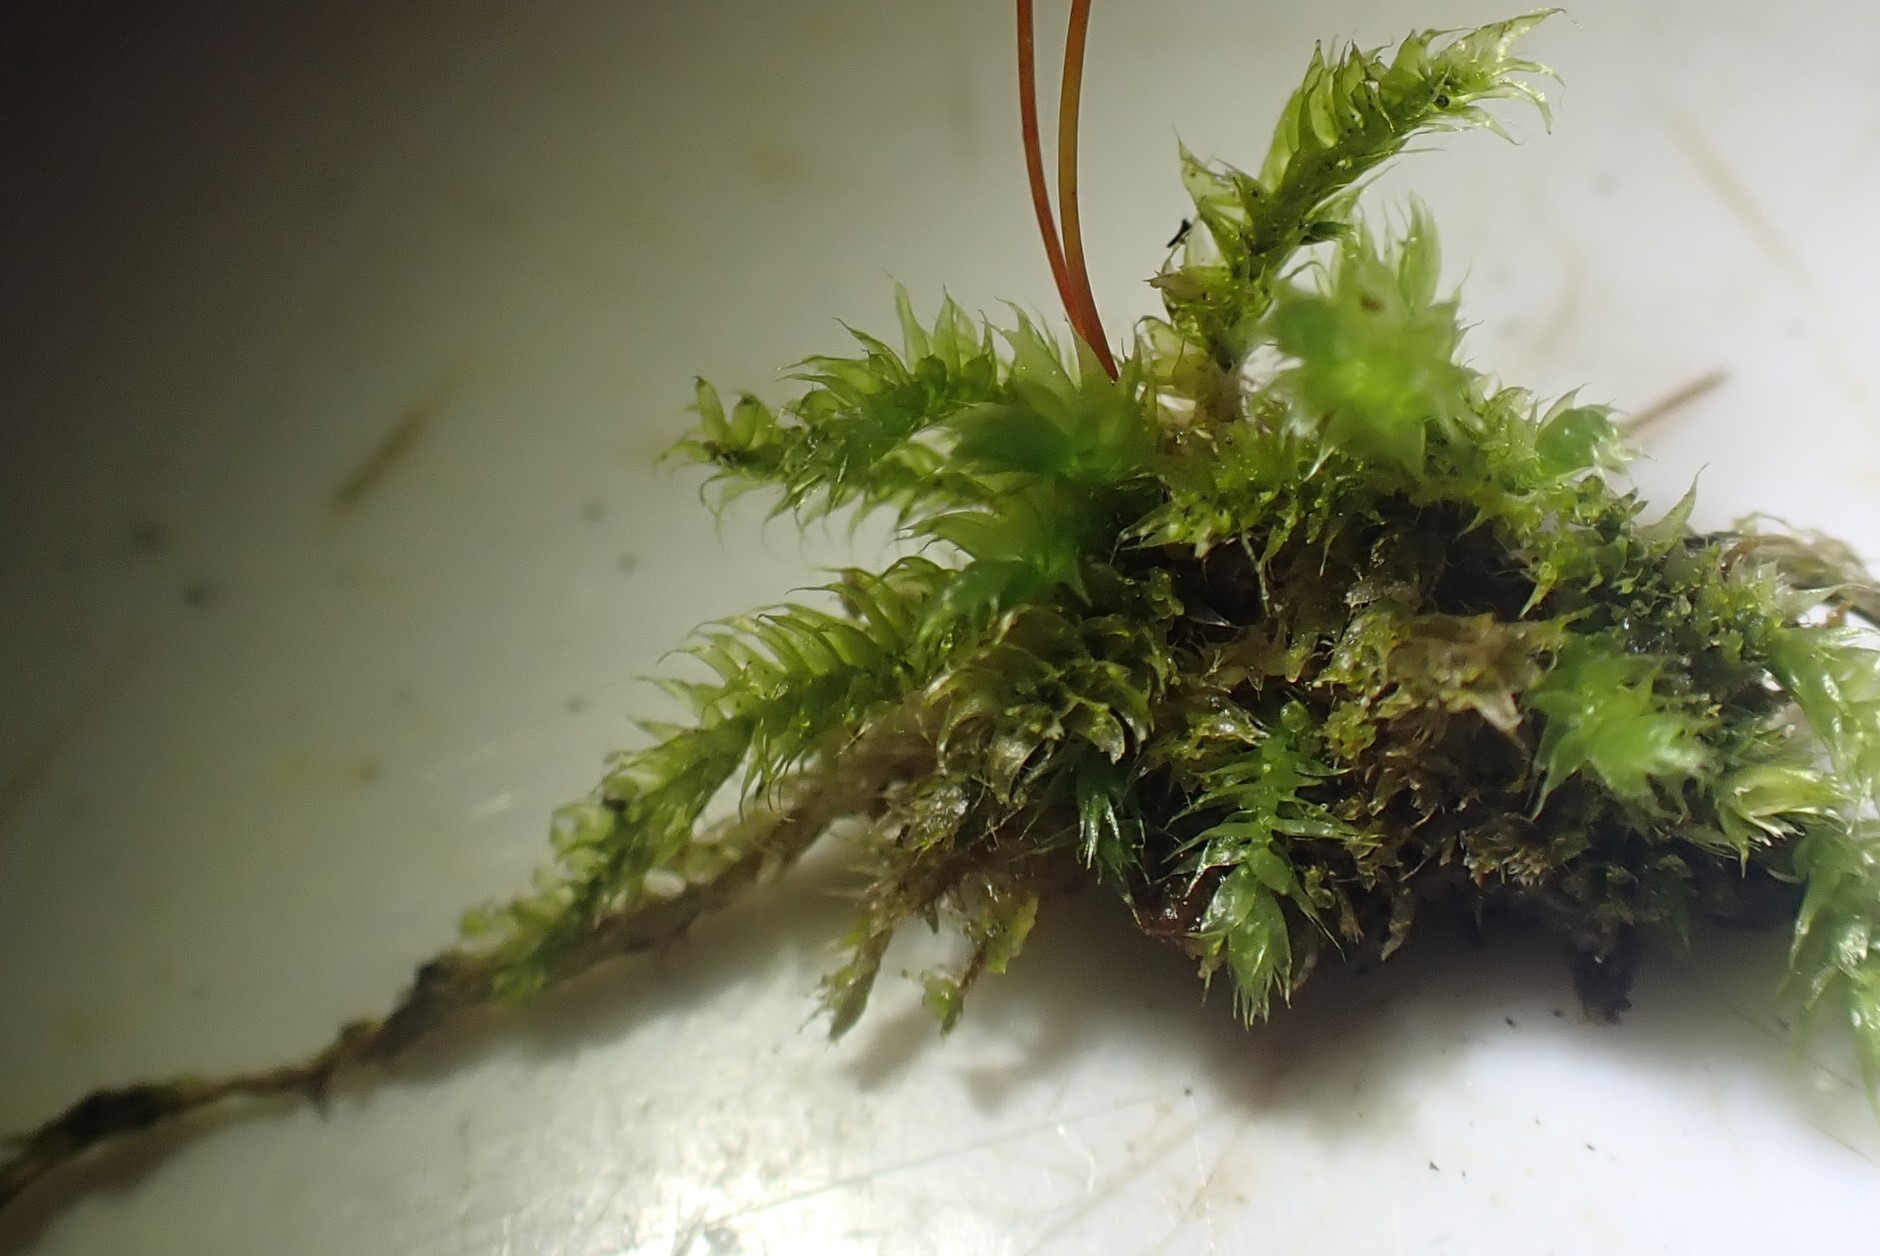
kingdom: Plantae
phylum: Bryophyta
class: Bryopsida
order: Hypnales
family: Plagiotheciaceae
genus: Herzogiella
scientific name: Herzogiella seligeri
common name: Stub-pølsekapsel
